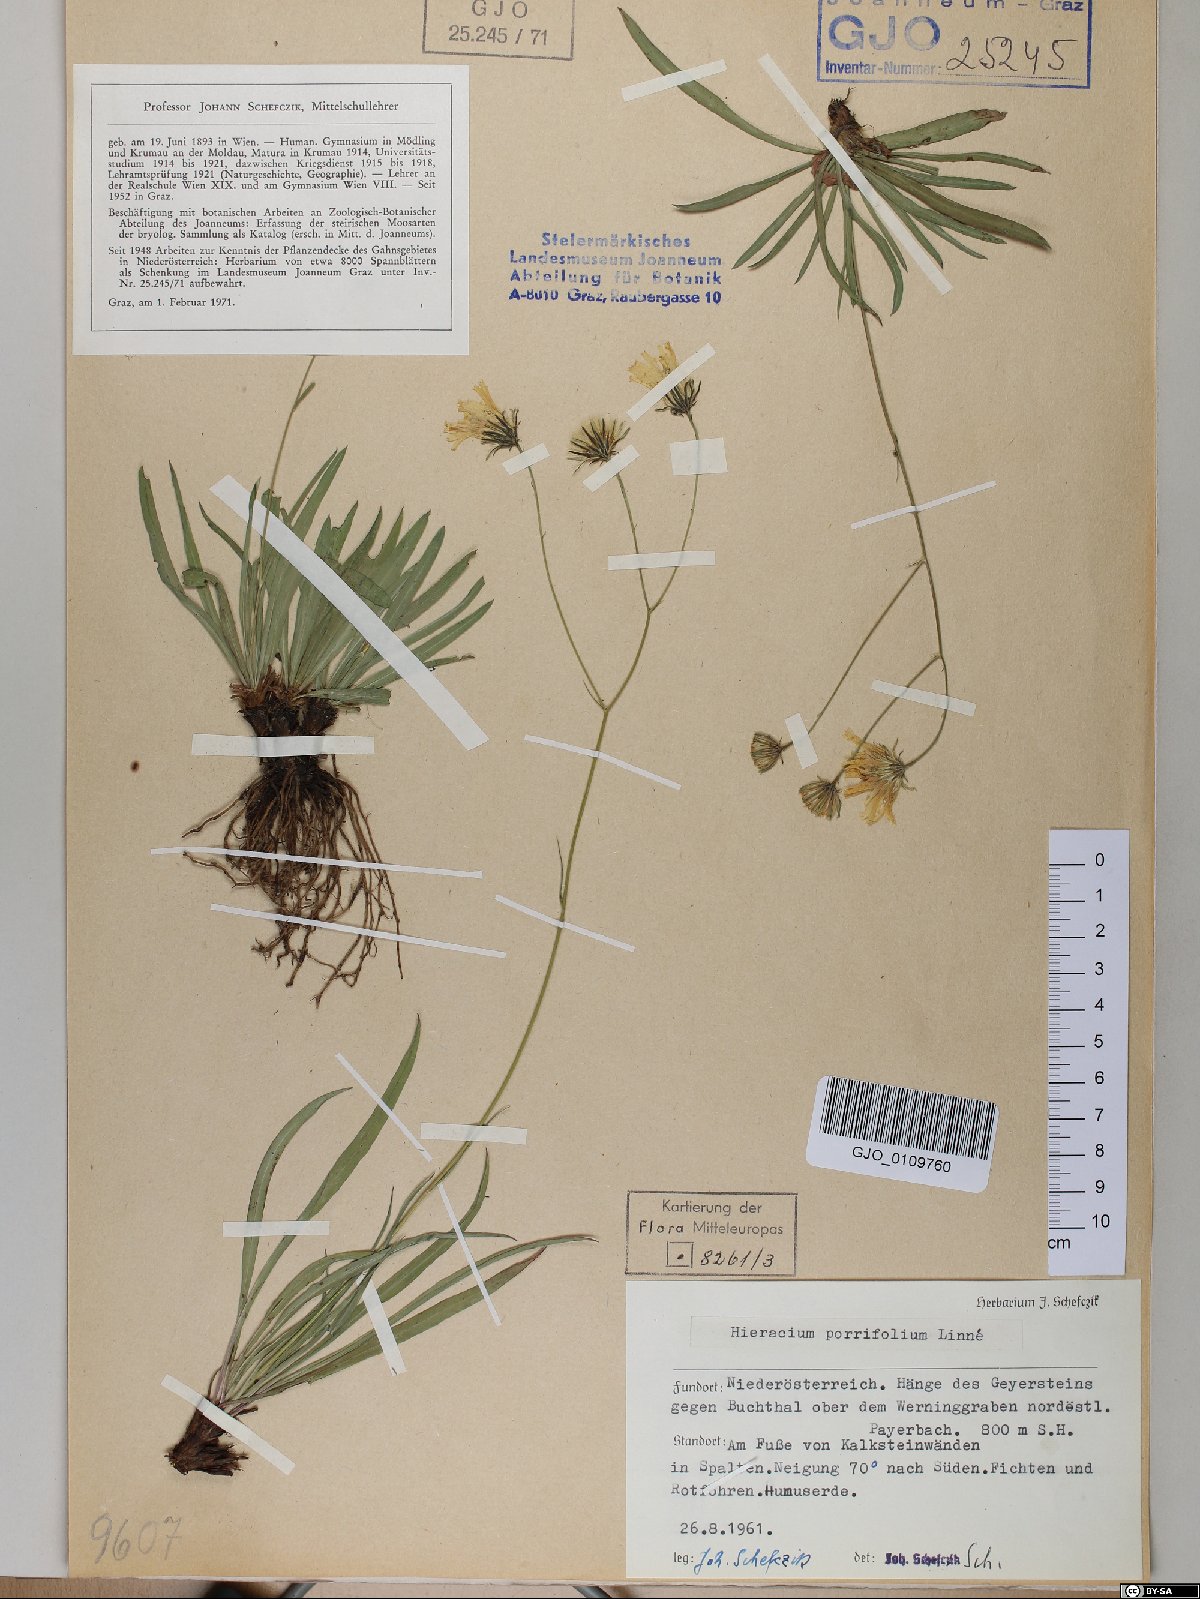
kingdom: Plantae
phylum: Tracheophyta
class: Magnoliopsida
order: Asterales
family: Asteraceae
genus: Hieracium
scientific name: Hieracium porrifolium
